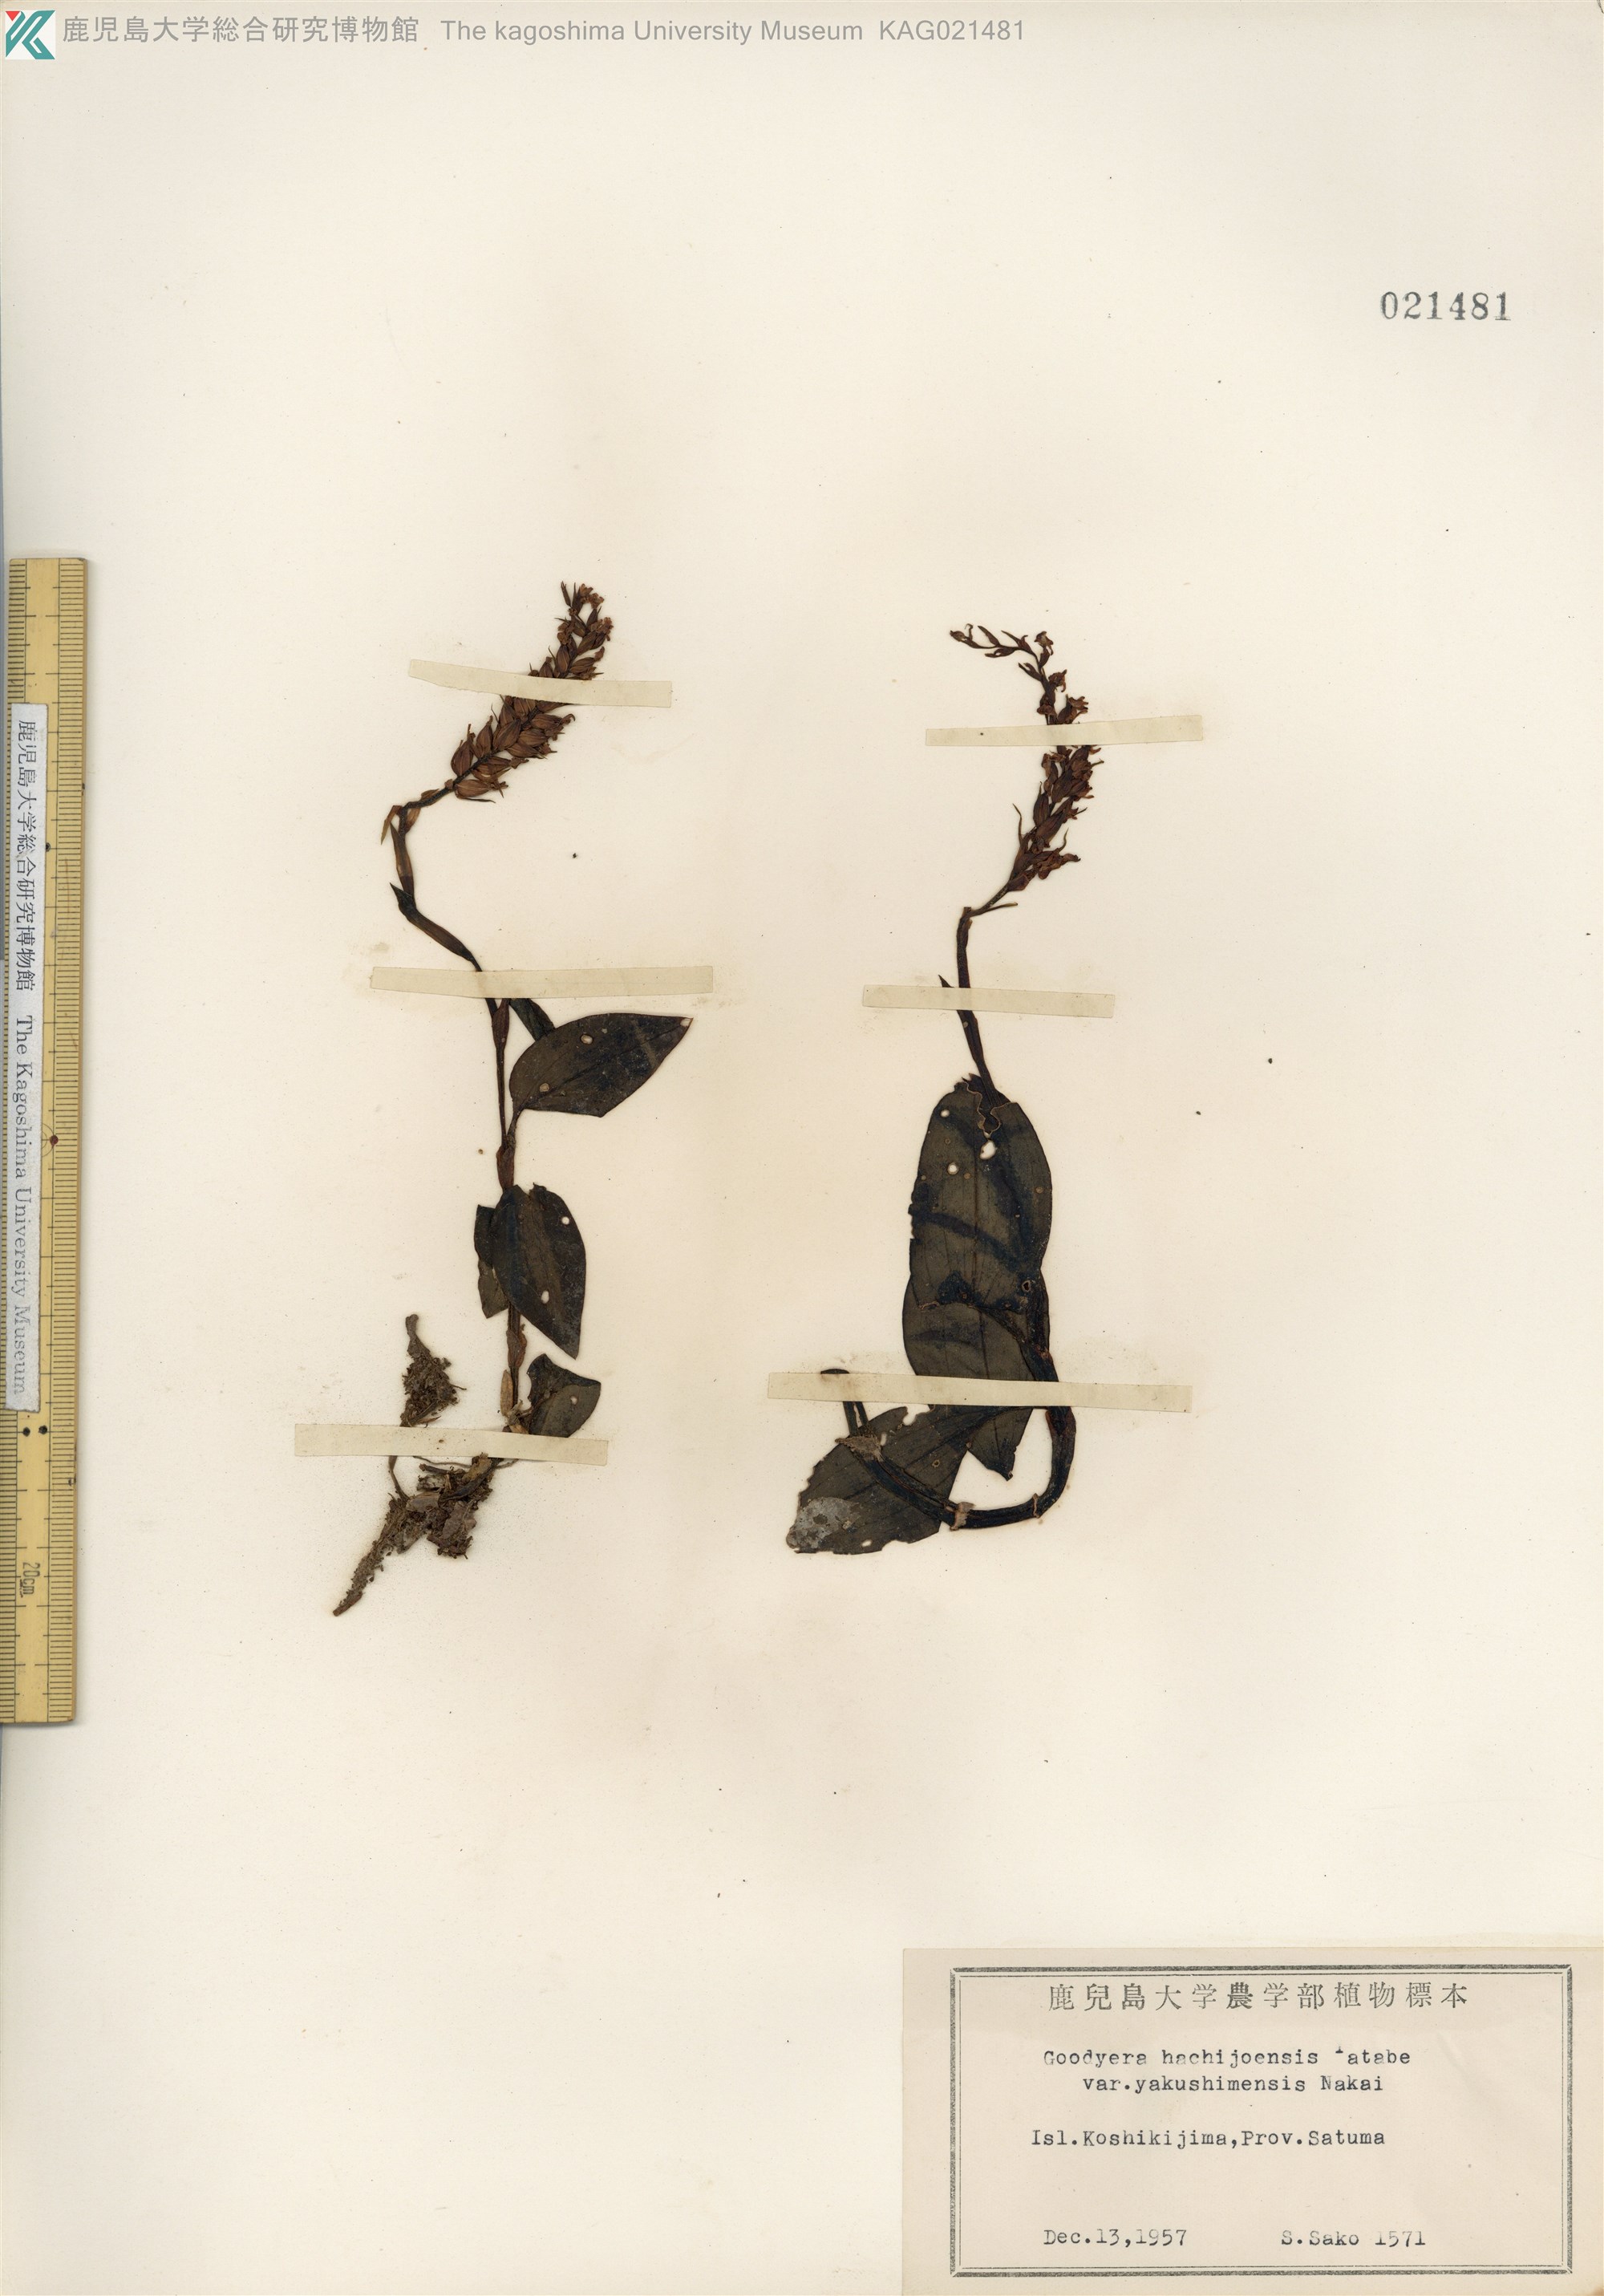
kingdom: Plantae
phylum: Tracheophyta
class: Liliopsida
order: Asparagales
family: Orchidaceae
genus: Goodyera
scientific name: Goodyera hachijoensis
